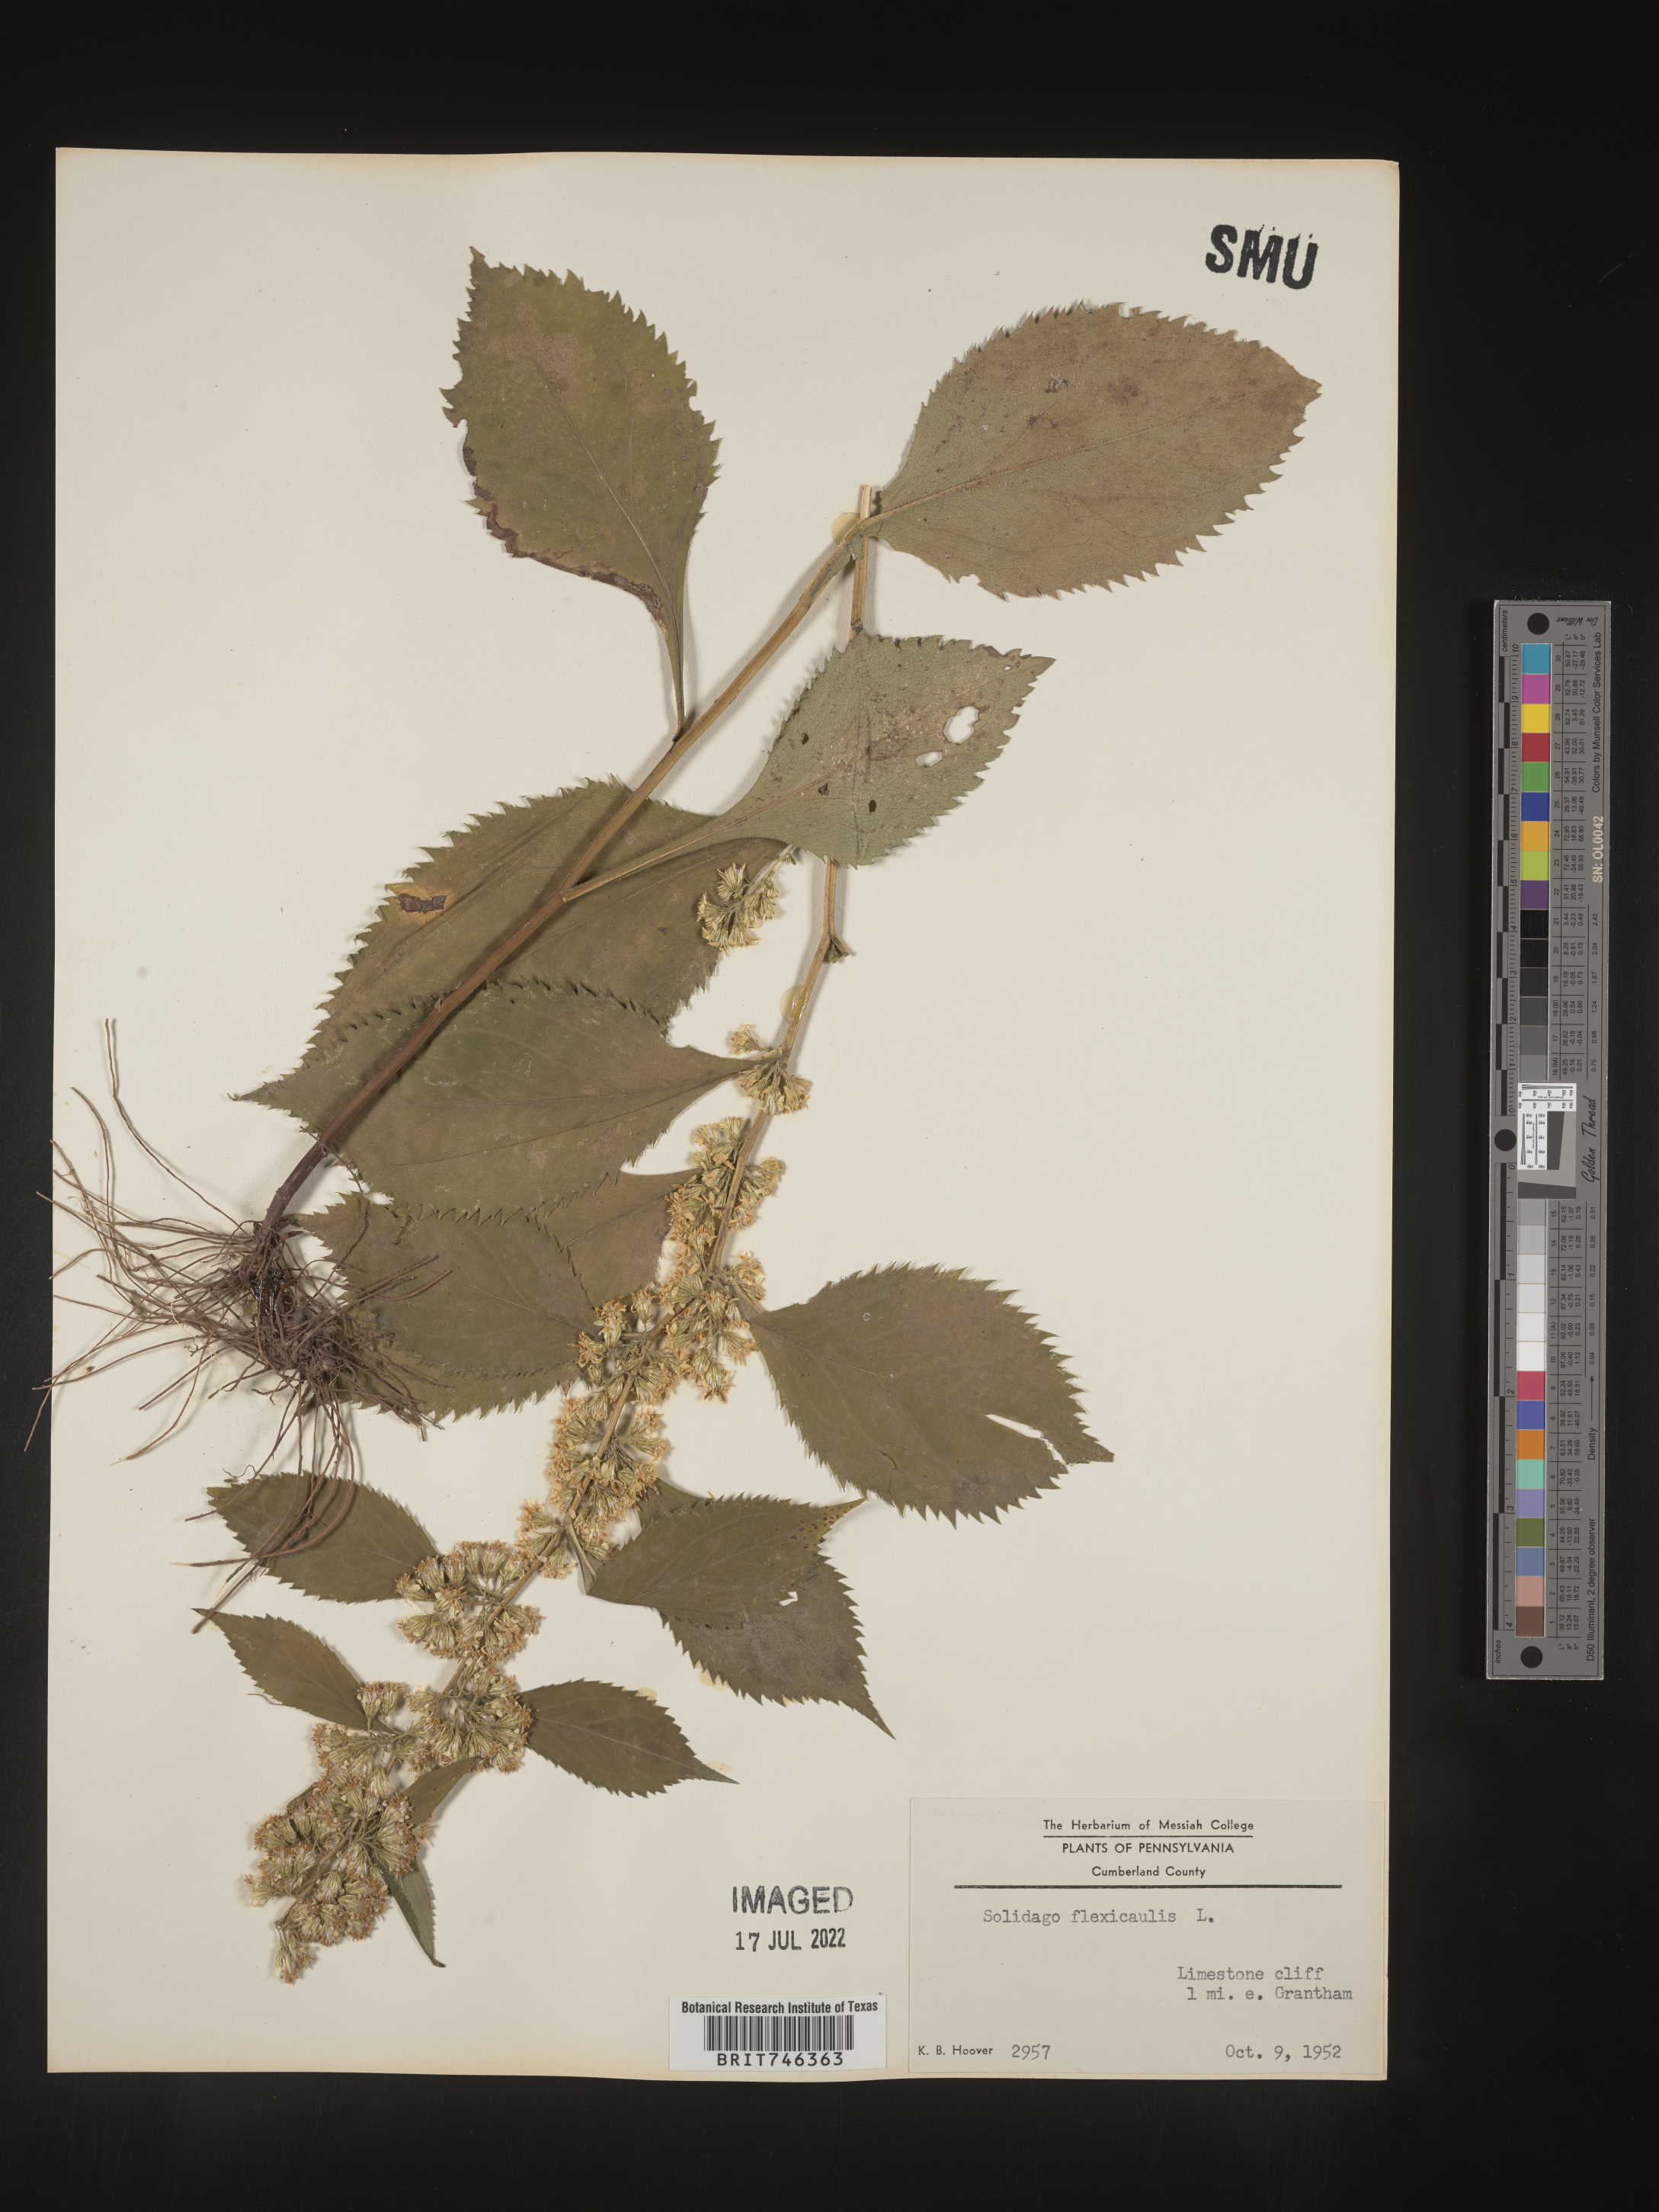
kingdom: Plantae
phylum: Tracheophyta
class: Magnoliopsida
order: Asterales
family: Asteraceae
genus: Solidago
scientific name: Solidago flexicaulis
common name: Zig-zag goldenrod
